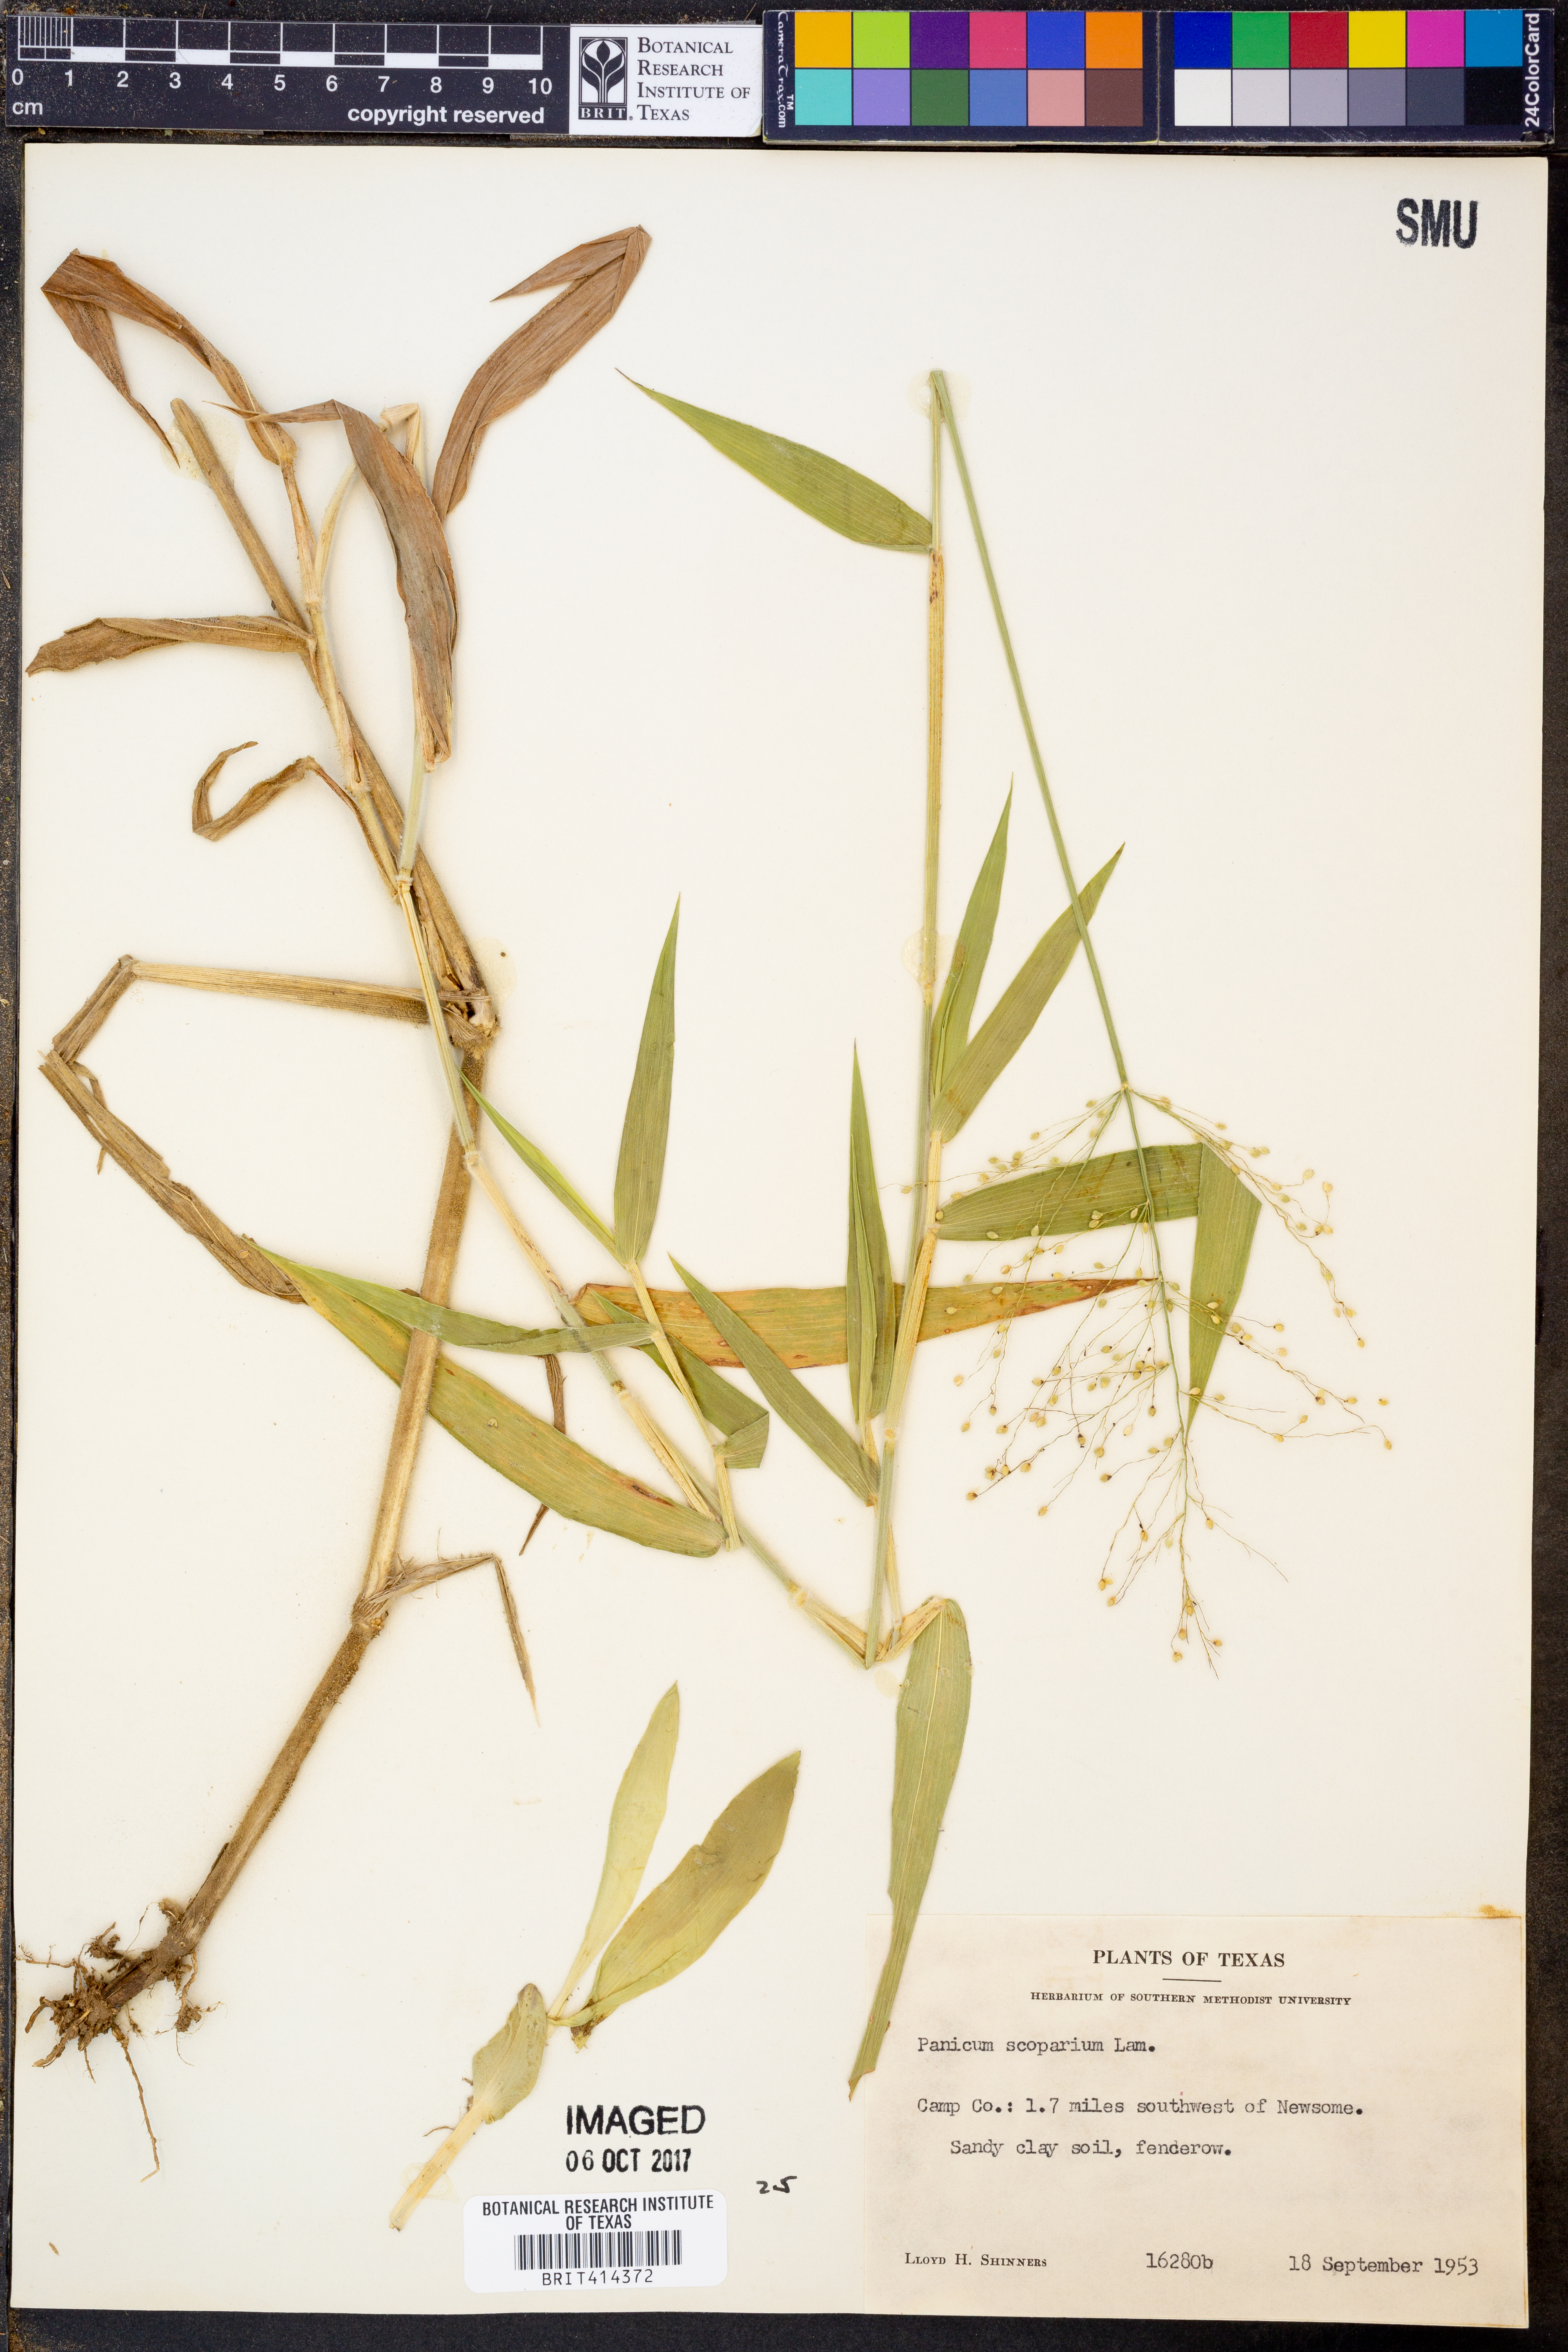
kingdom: Plantae
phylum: Tracheophyta
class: Liliopsida
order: Poales
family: Poaceae
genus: Dichanthelium
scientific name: Dichanthelium scribnerianum
